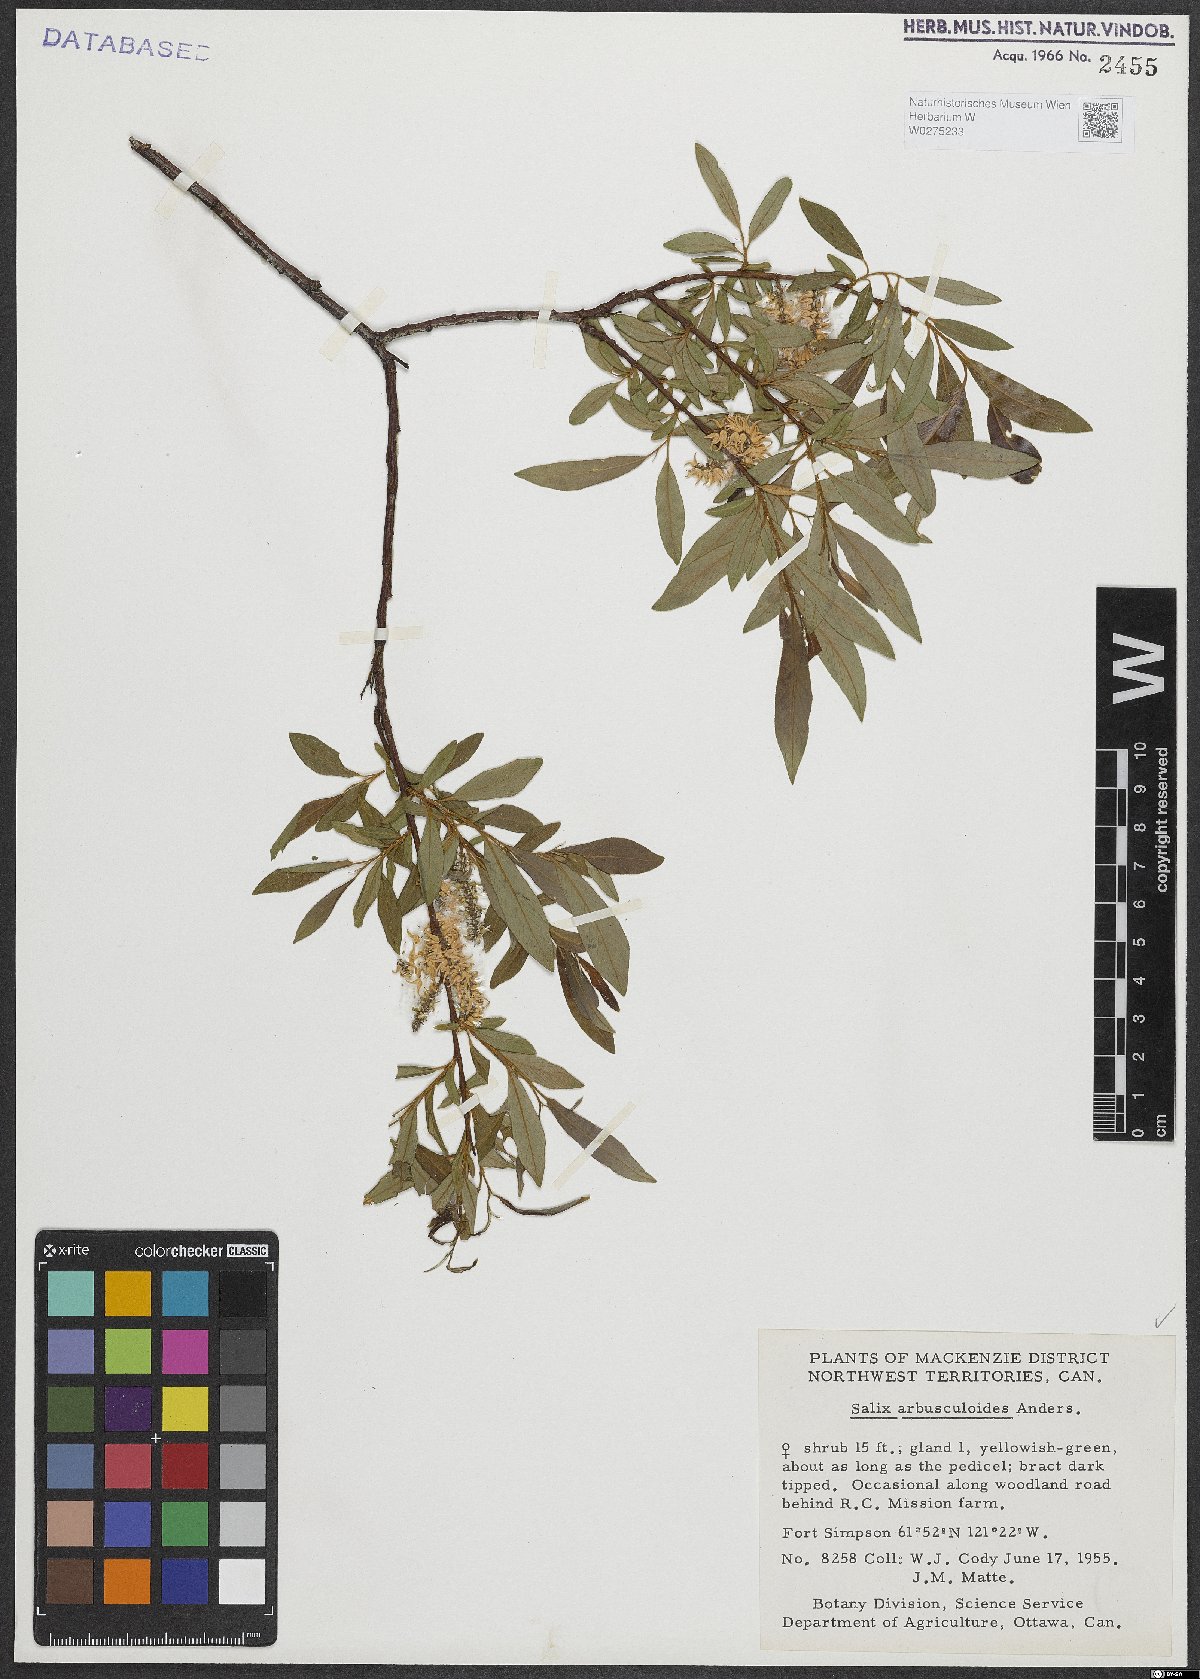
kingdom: Plantae
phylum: Tracheophyta
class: Magnoliopsida
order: Malpighiales
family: Salicaceae
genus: Salix
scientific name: Salix arbusculoides
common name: Little-tree willow
